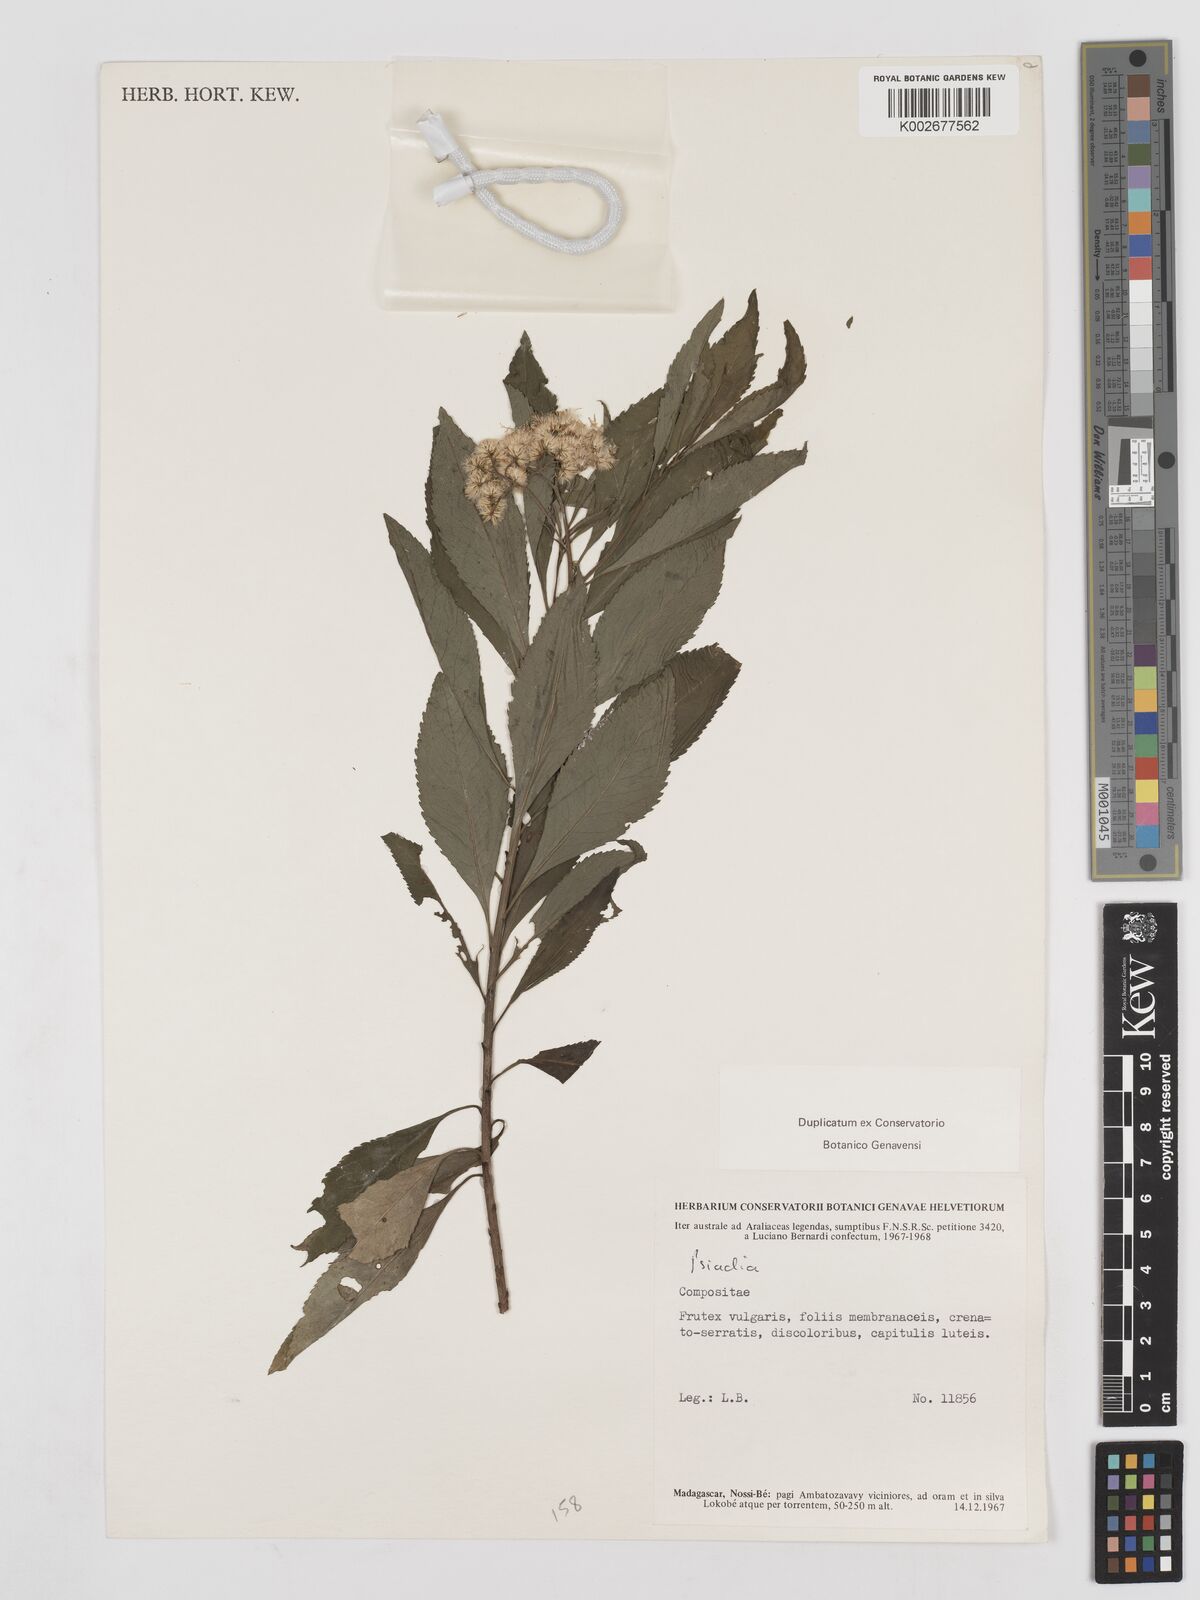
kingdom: Plantae
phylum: Tracheophyta
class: Magnoliopsida
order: Asterales
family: Asteraceae
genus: Psiadia
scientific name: Psiadia
